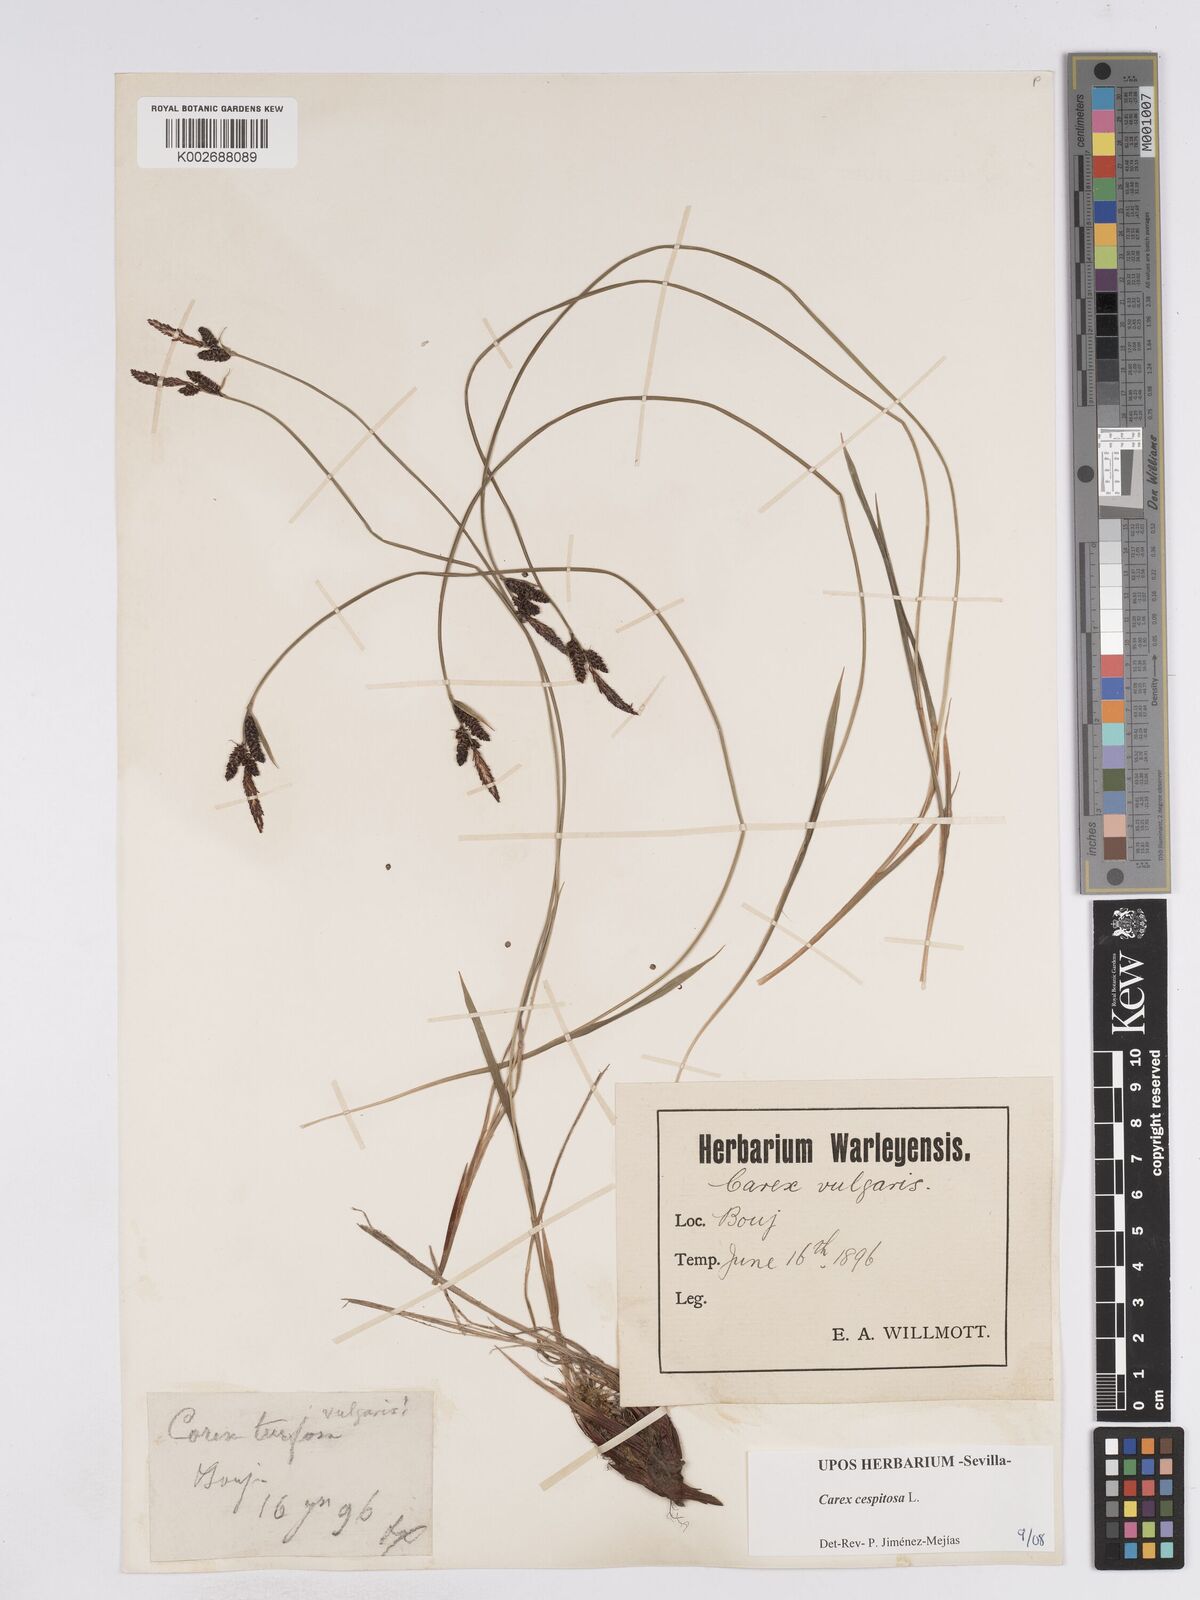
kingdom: Plantae
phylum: Tracheophyta
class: Liliopsida
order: Poales
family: Cyperaceae
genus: Carex
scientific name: Carex
